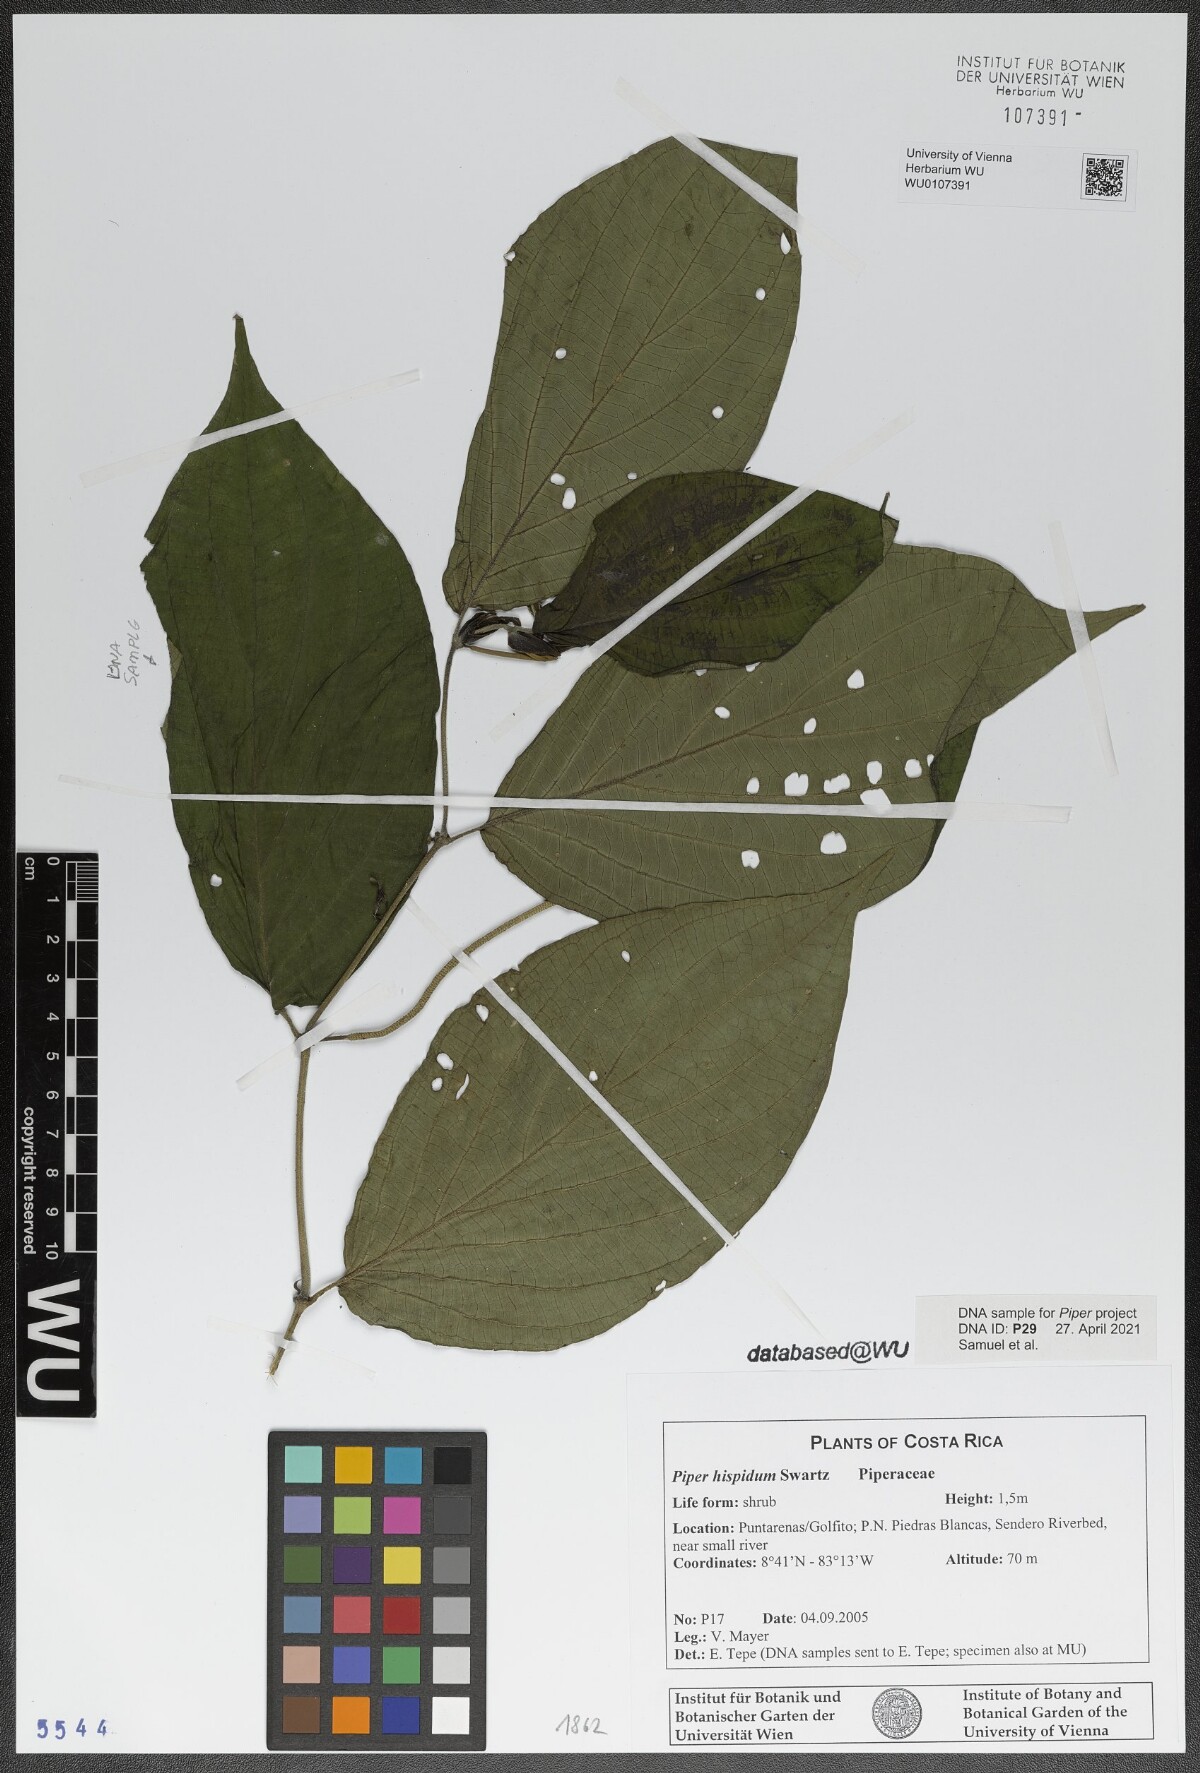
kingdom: Plantae
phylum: Tracheophyta
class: Magnoliopsida
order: Piperales
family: Piperaceae
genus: Piper
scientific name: Piper hispidum
